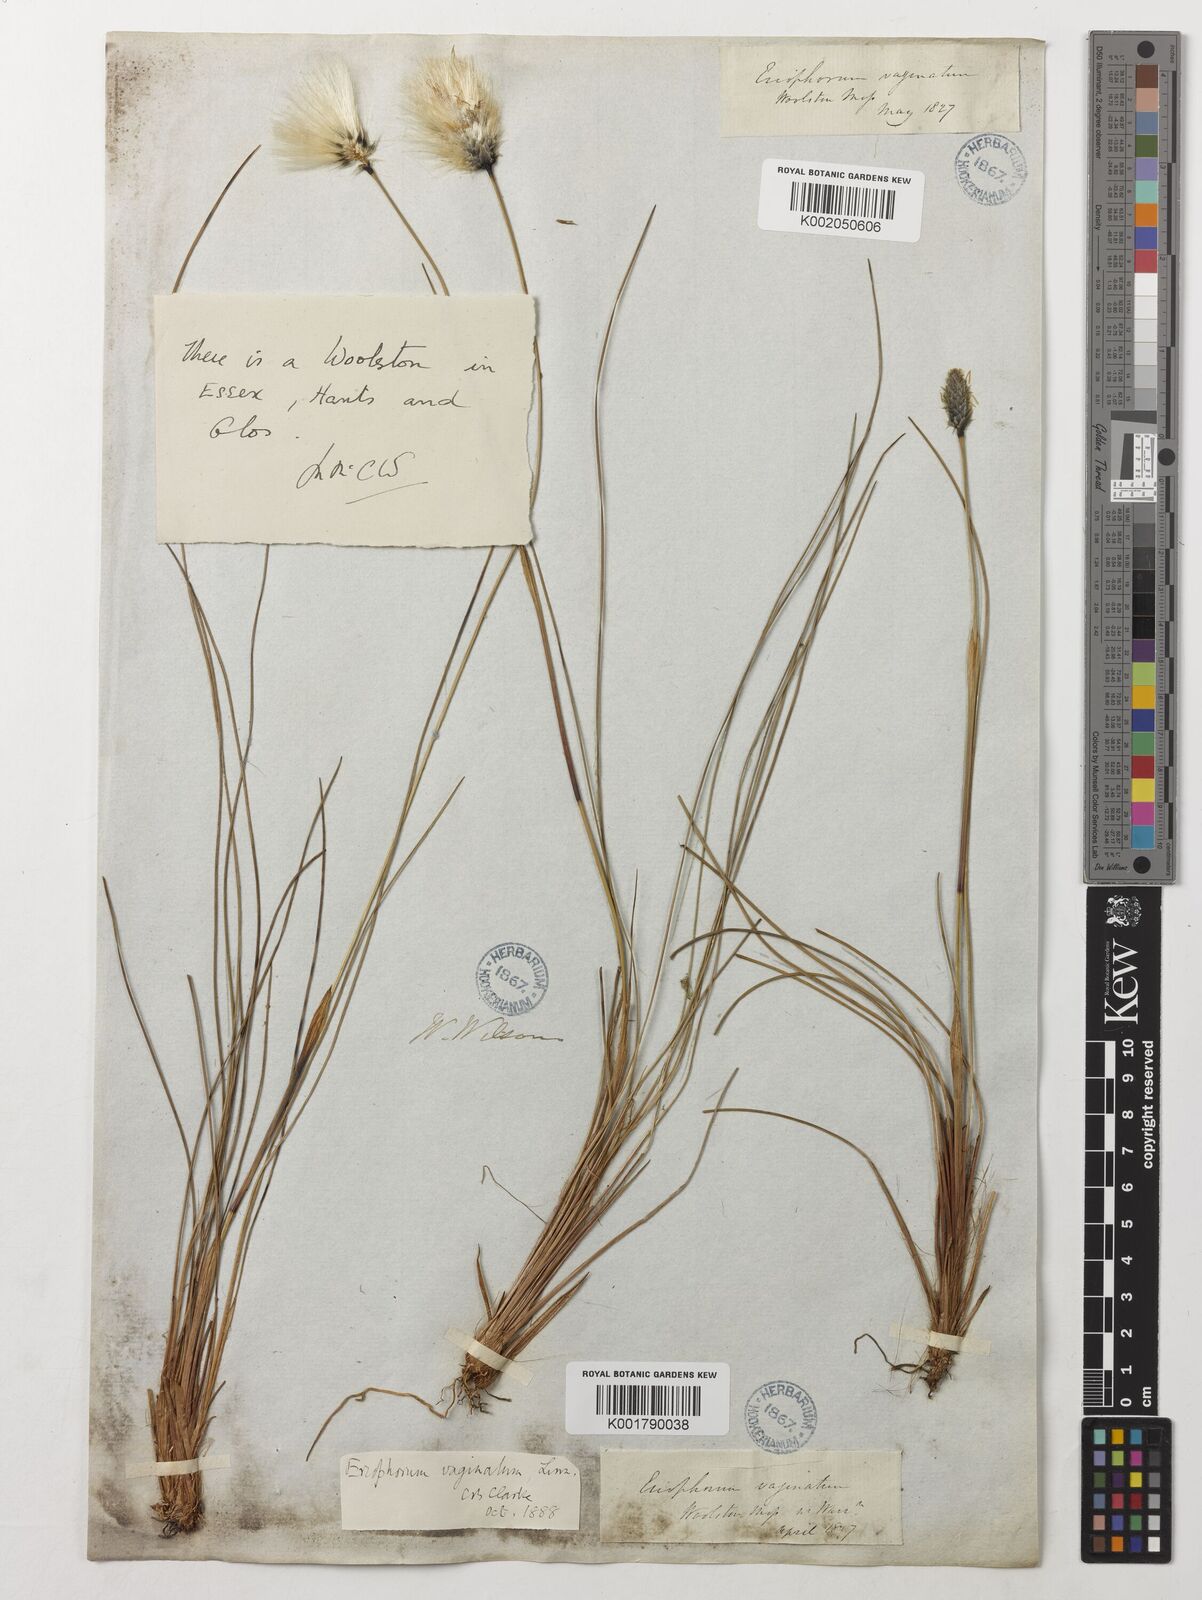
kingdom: Plantae
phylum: Tracheophyta
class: Liliopsida
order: Poales
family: Cyperaceae
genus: Eriophorum
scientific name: Eriophorum vaginatum
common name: Hare's-tail cottongrass
